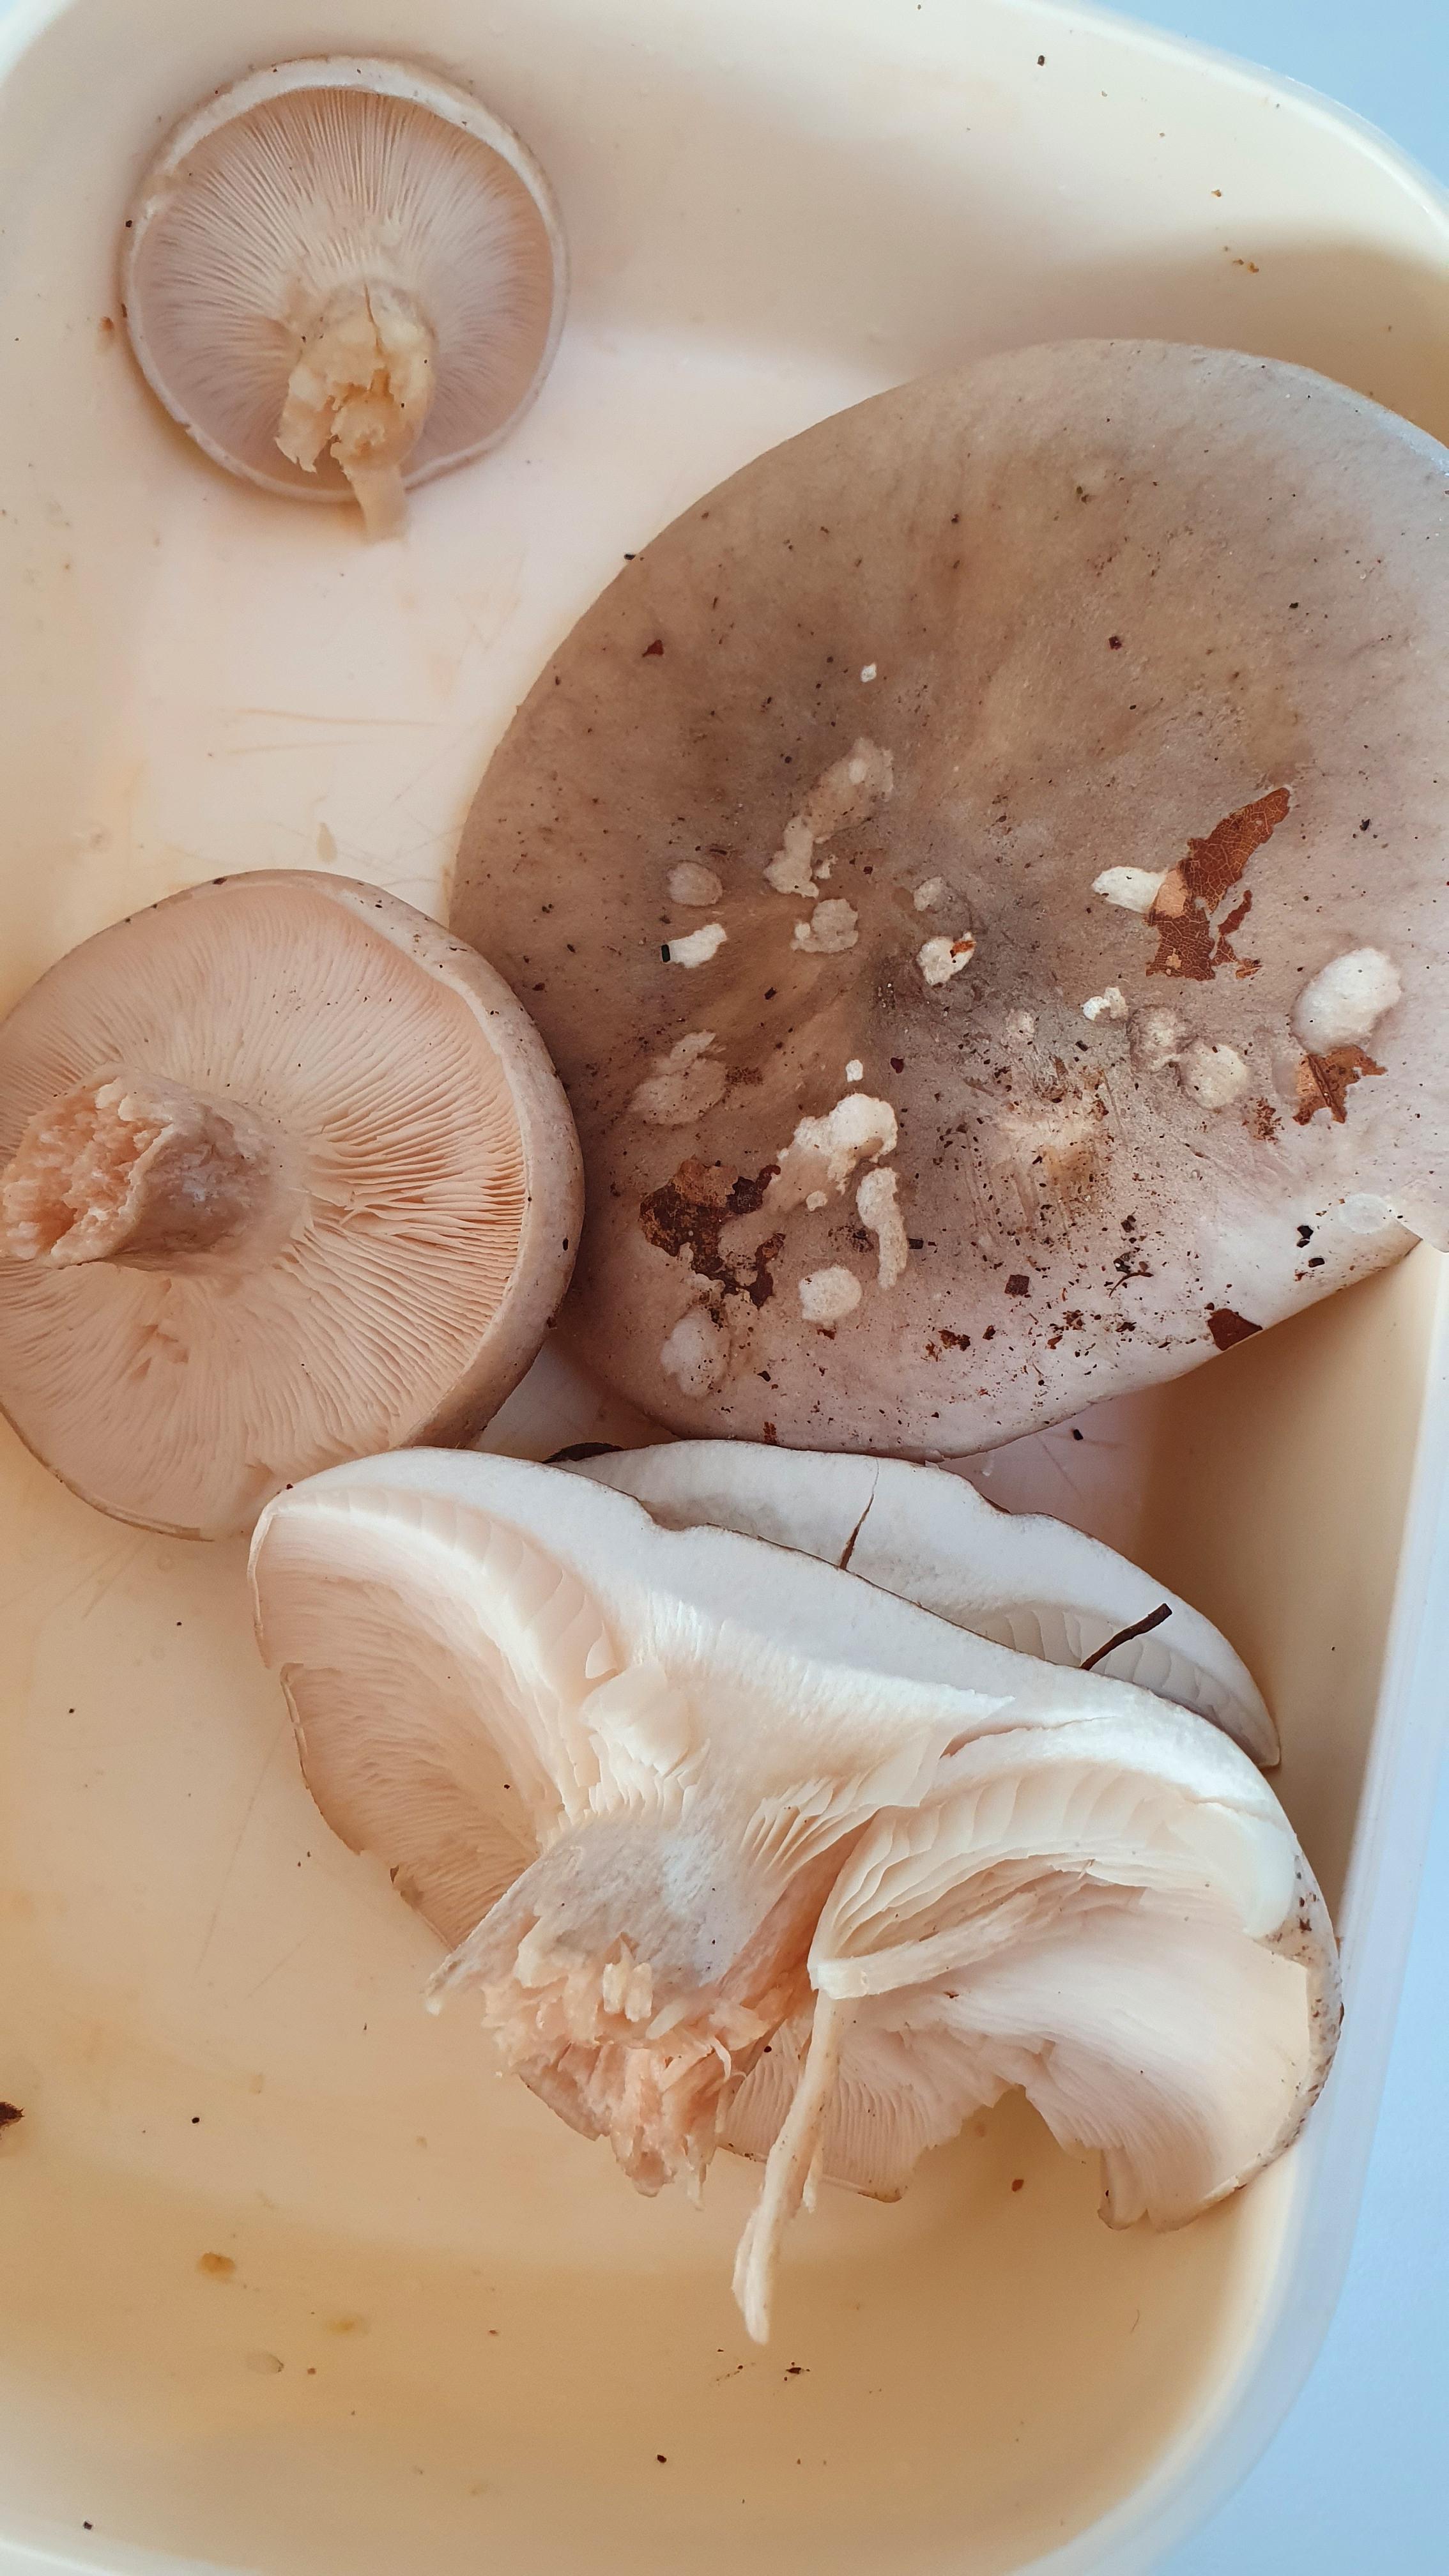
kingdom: Fungi
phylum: Basidiomycota
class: Agaricomycetes
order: Agaricales
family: Tricholomataceae
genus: Clitocybe
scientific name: Clitocybe nebularis
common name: tåge-tragthat
